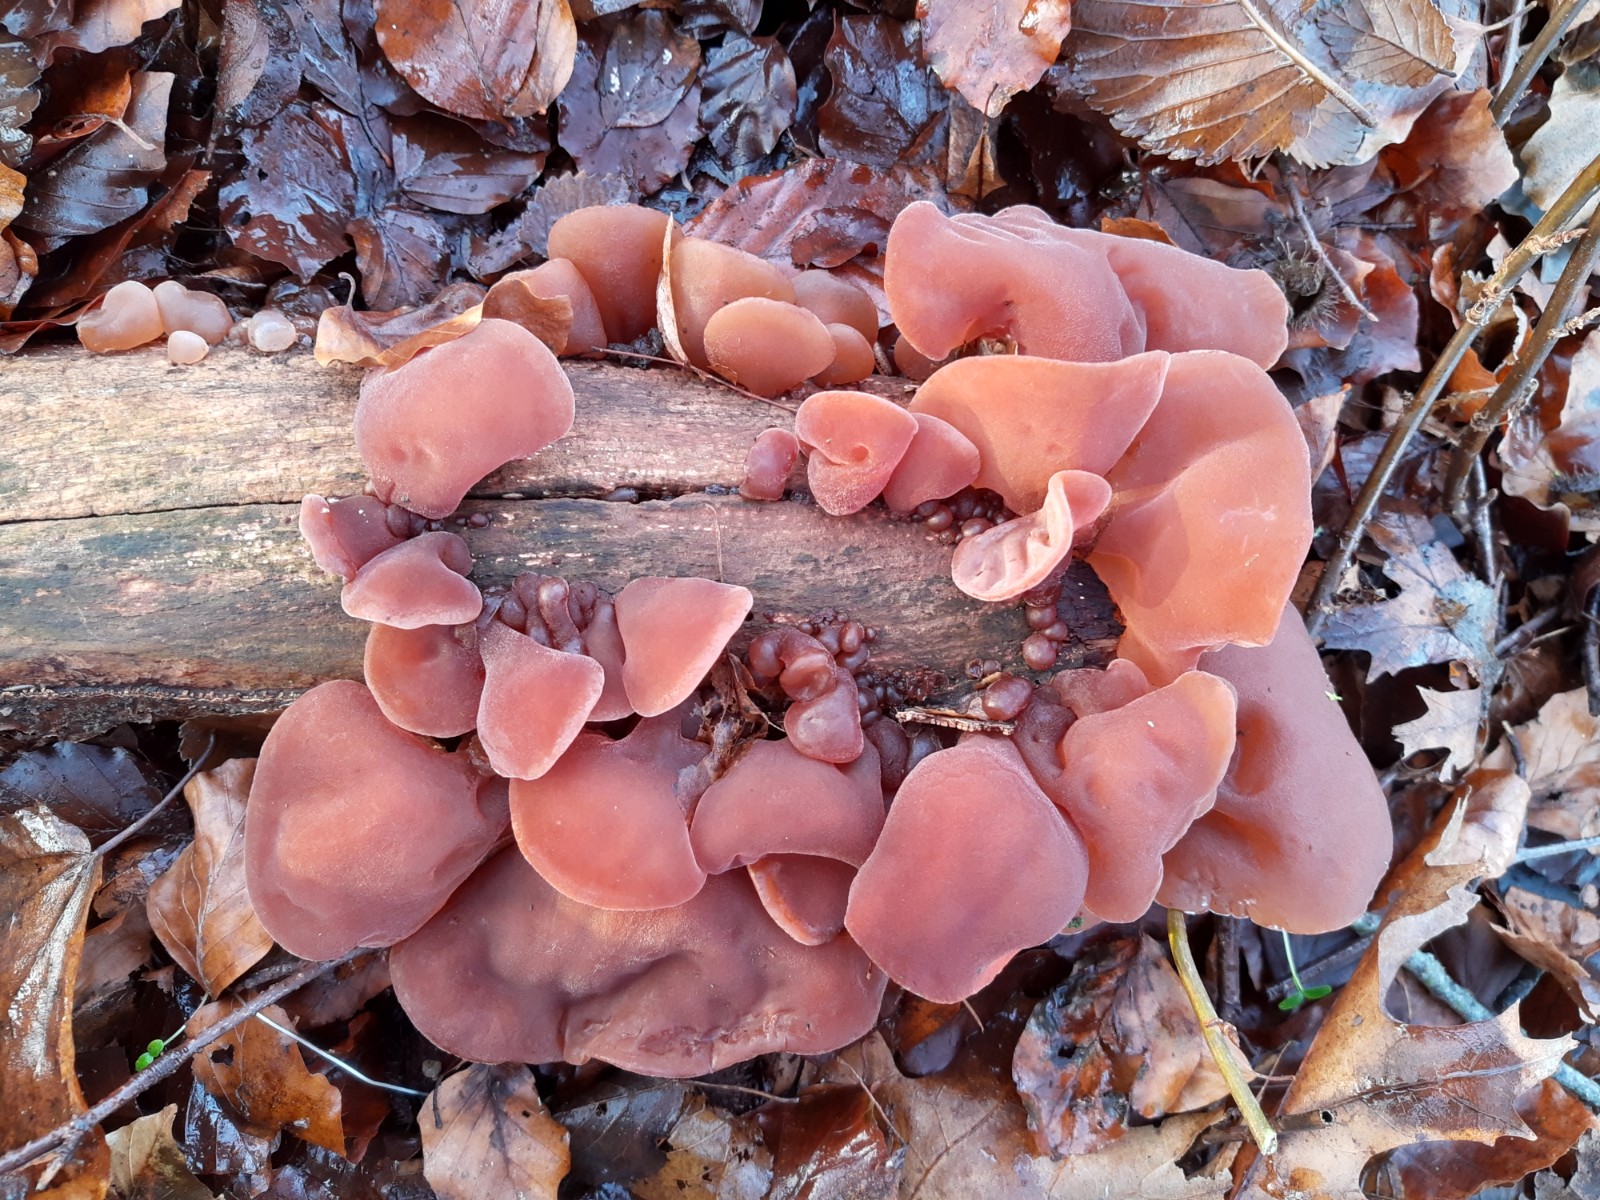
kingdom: Fungi
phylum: Basidiomycota
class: Agaricomycetes
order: Auriculariales
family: Auriculariaceae
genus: Auricularia
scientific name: Auricularia auricula-judae
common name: almindelig judasøre
